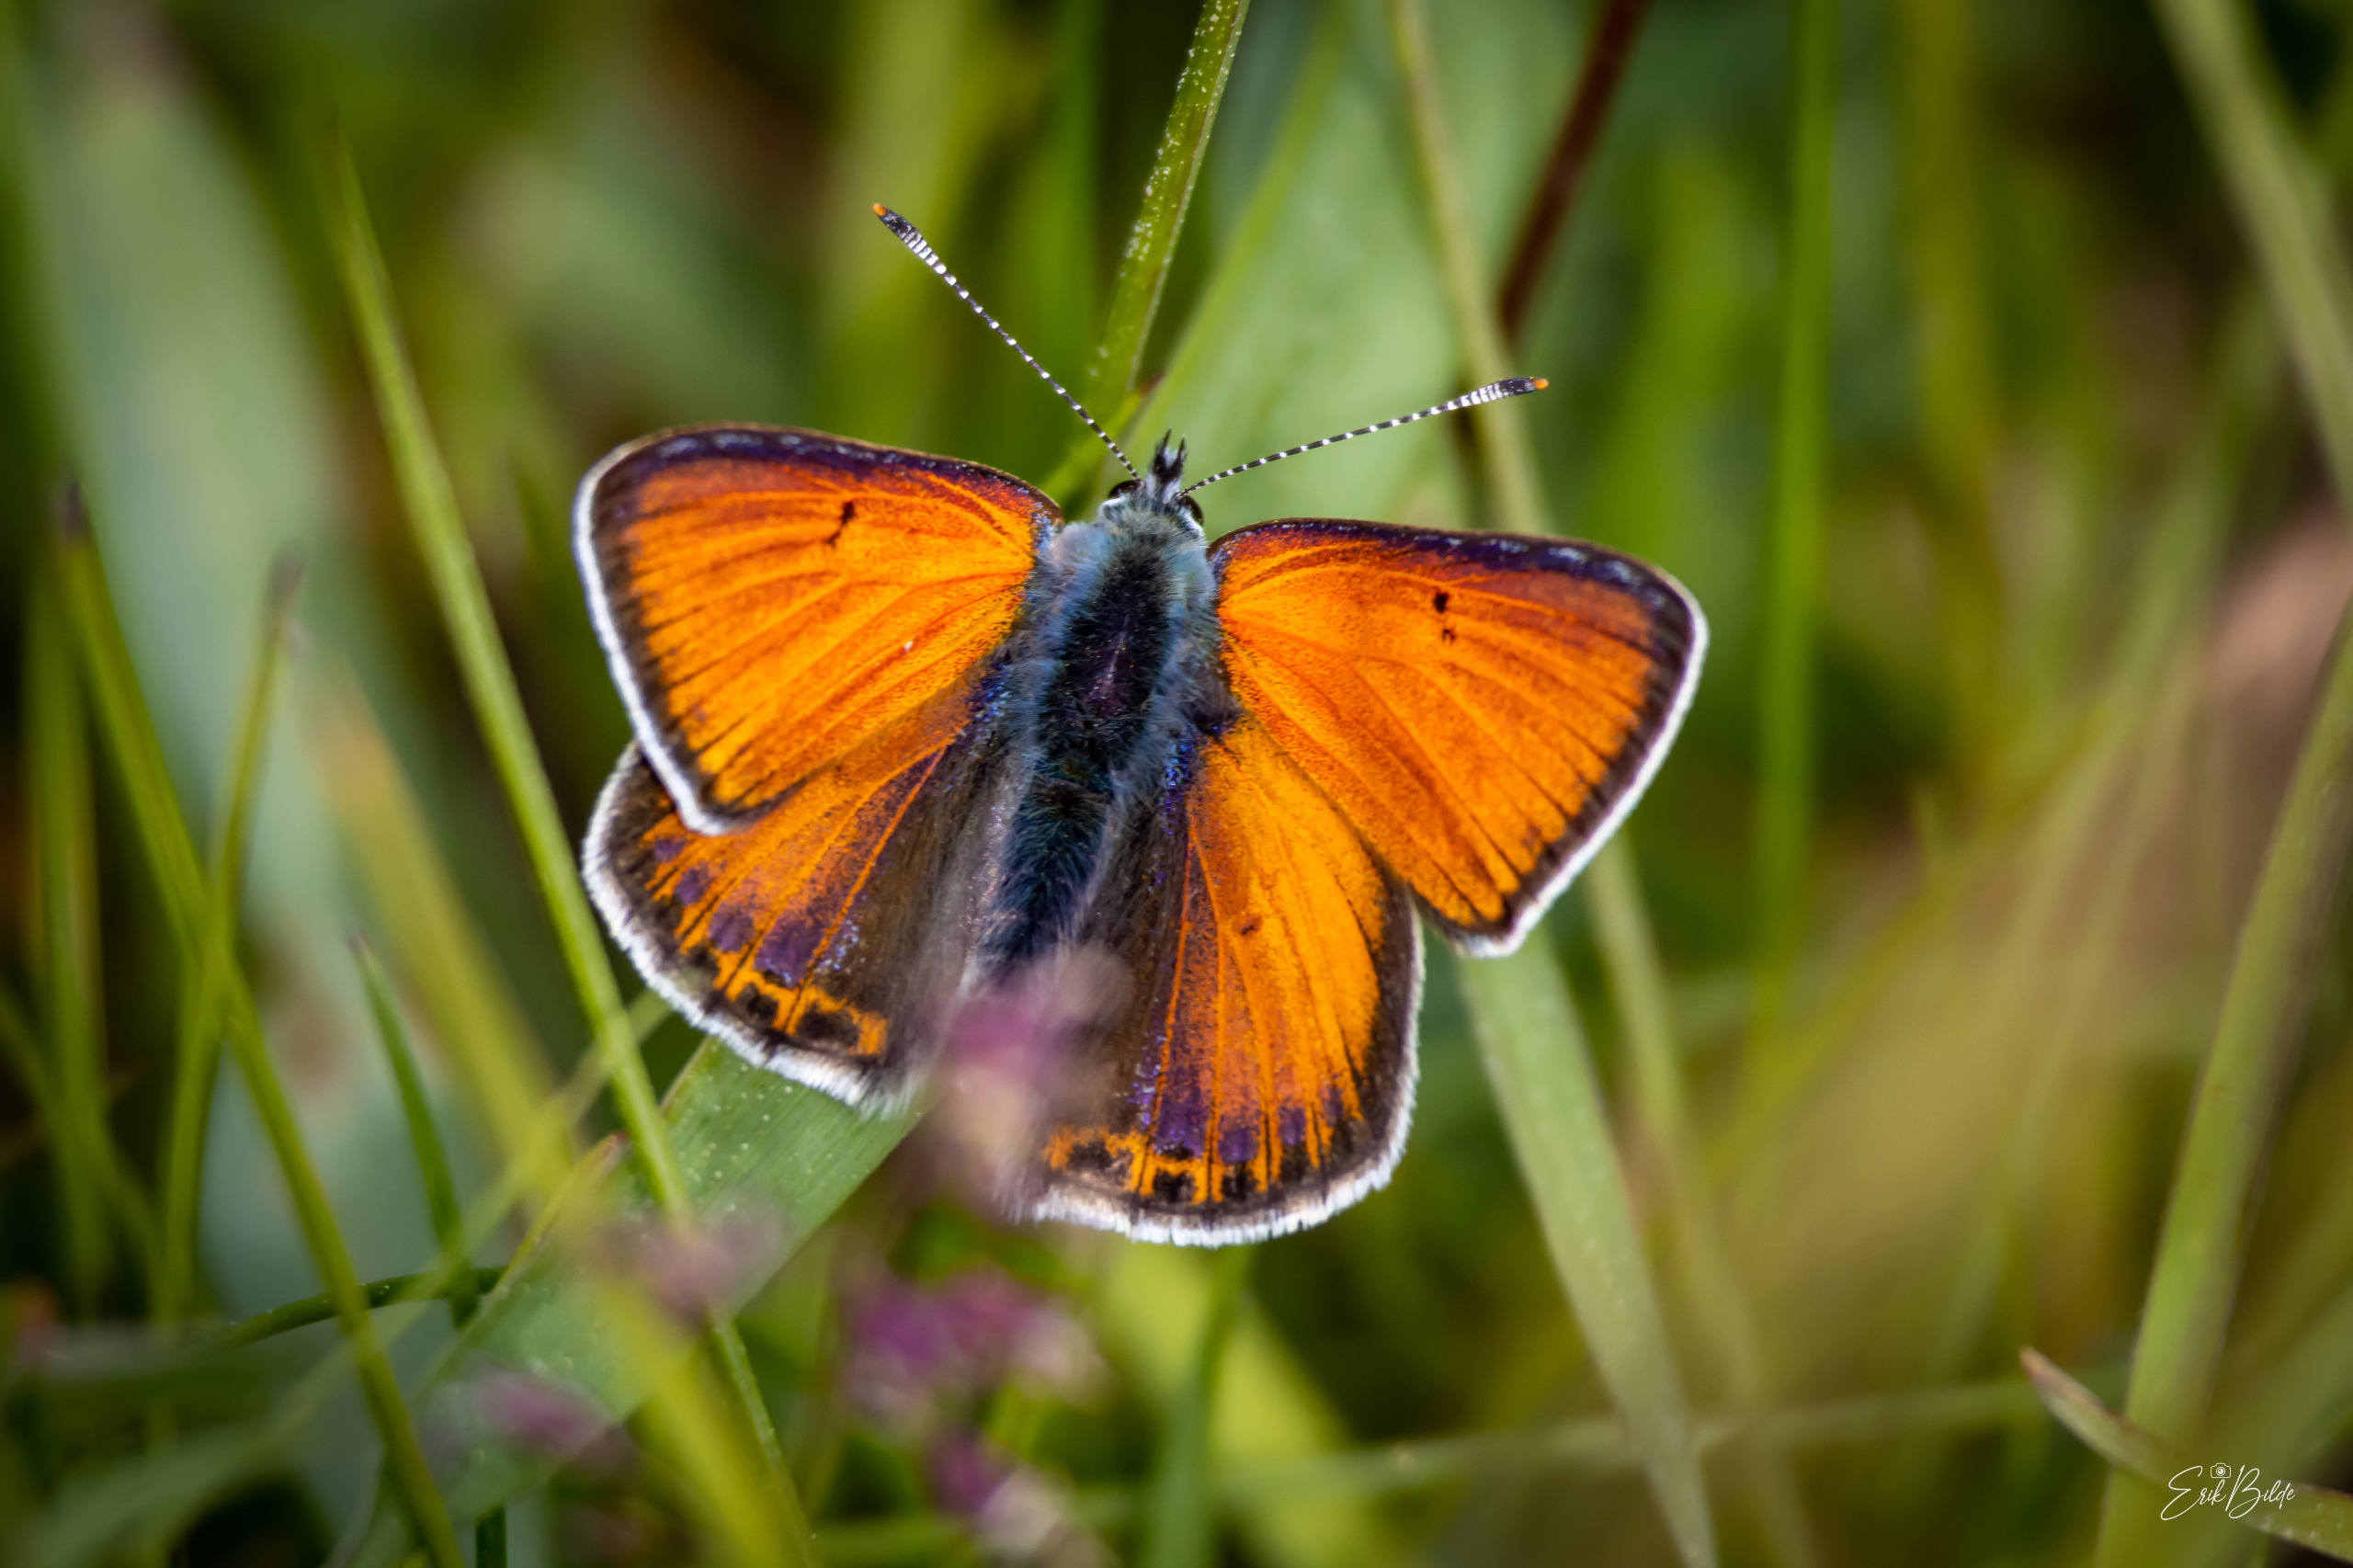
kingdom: Animalia
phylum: Arthropoda
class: Insecta
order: Lepidoptera
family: Lycaenidae
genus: Palaeochrysophanus
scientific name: Palaeochrysophanus hippothoe
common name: Violetrandet ildfugl
